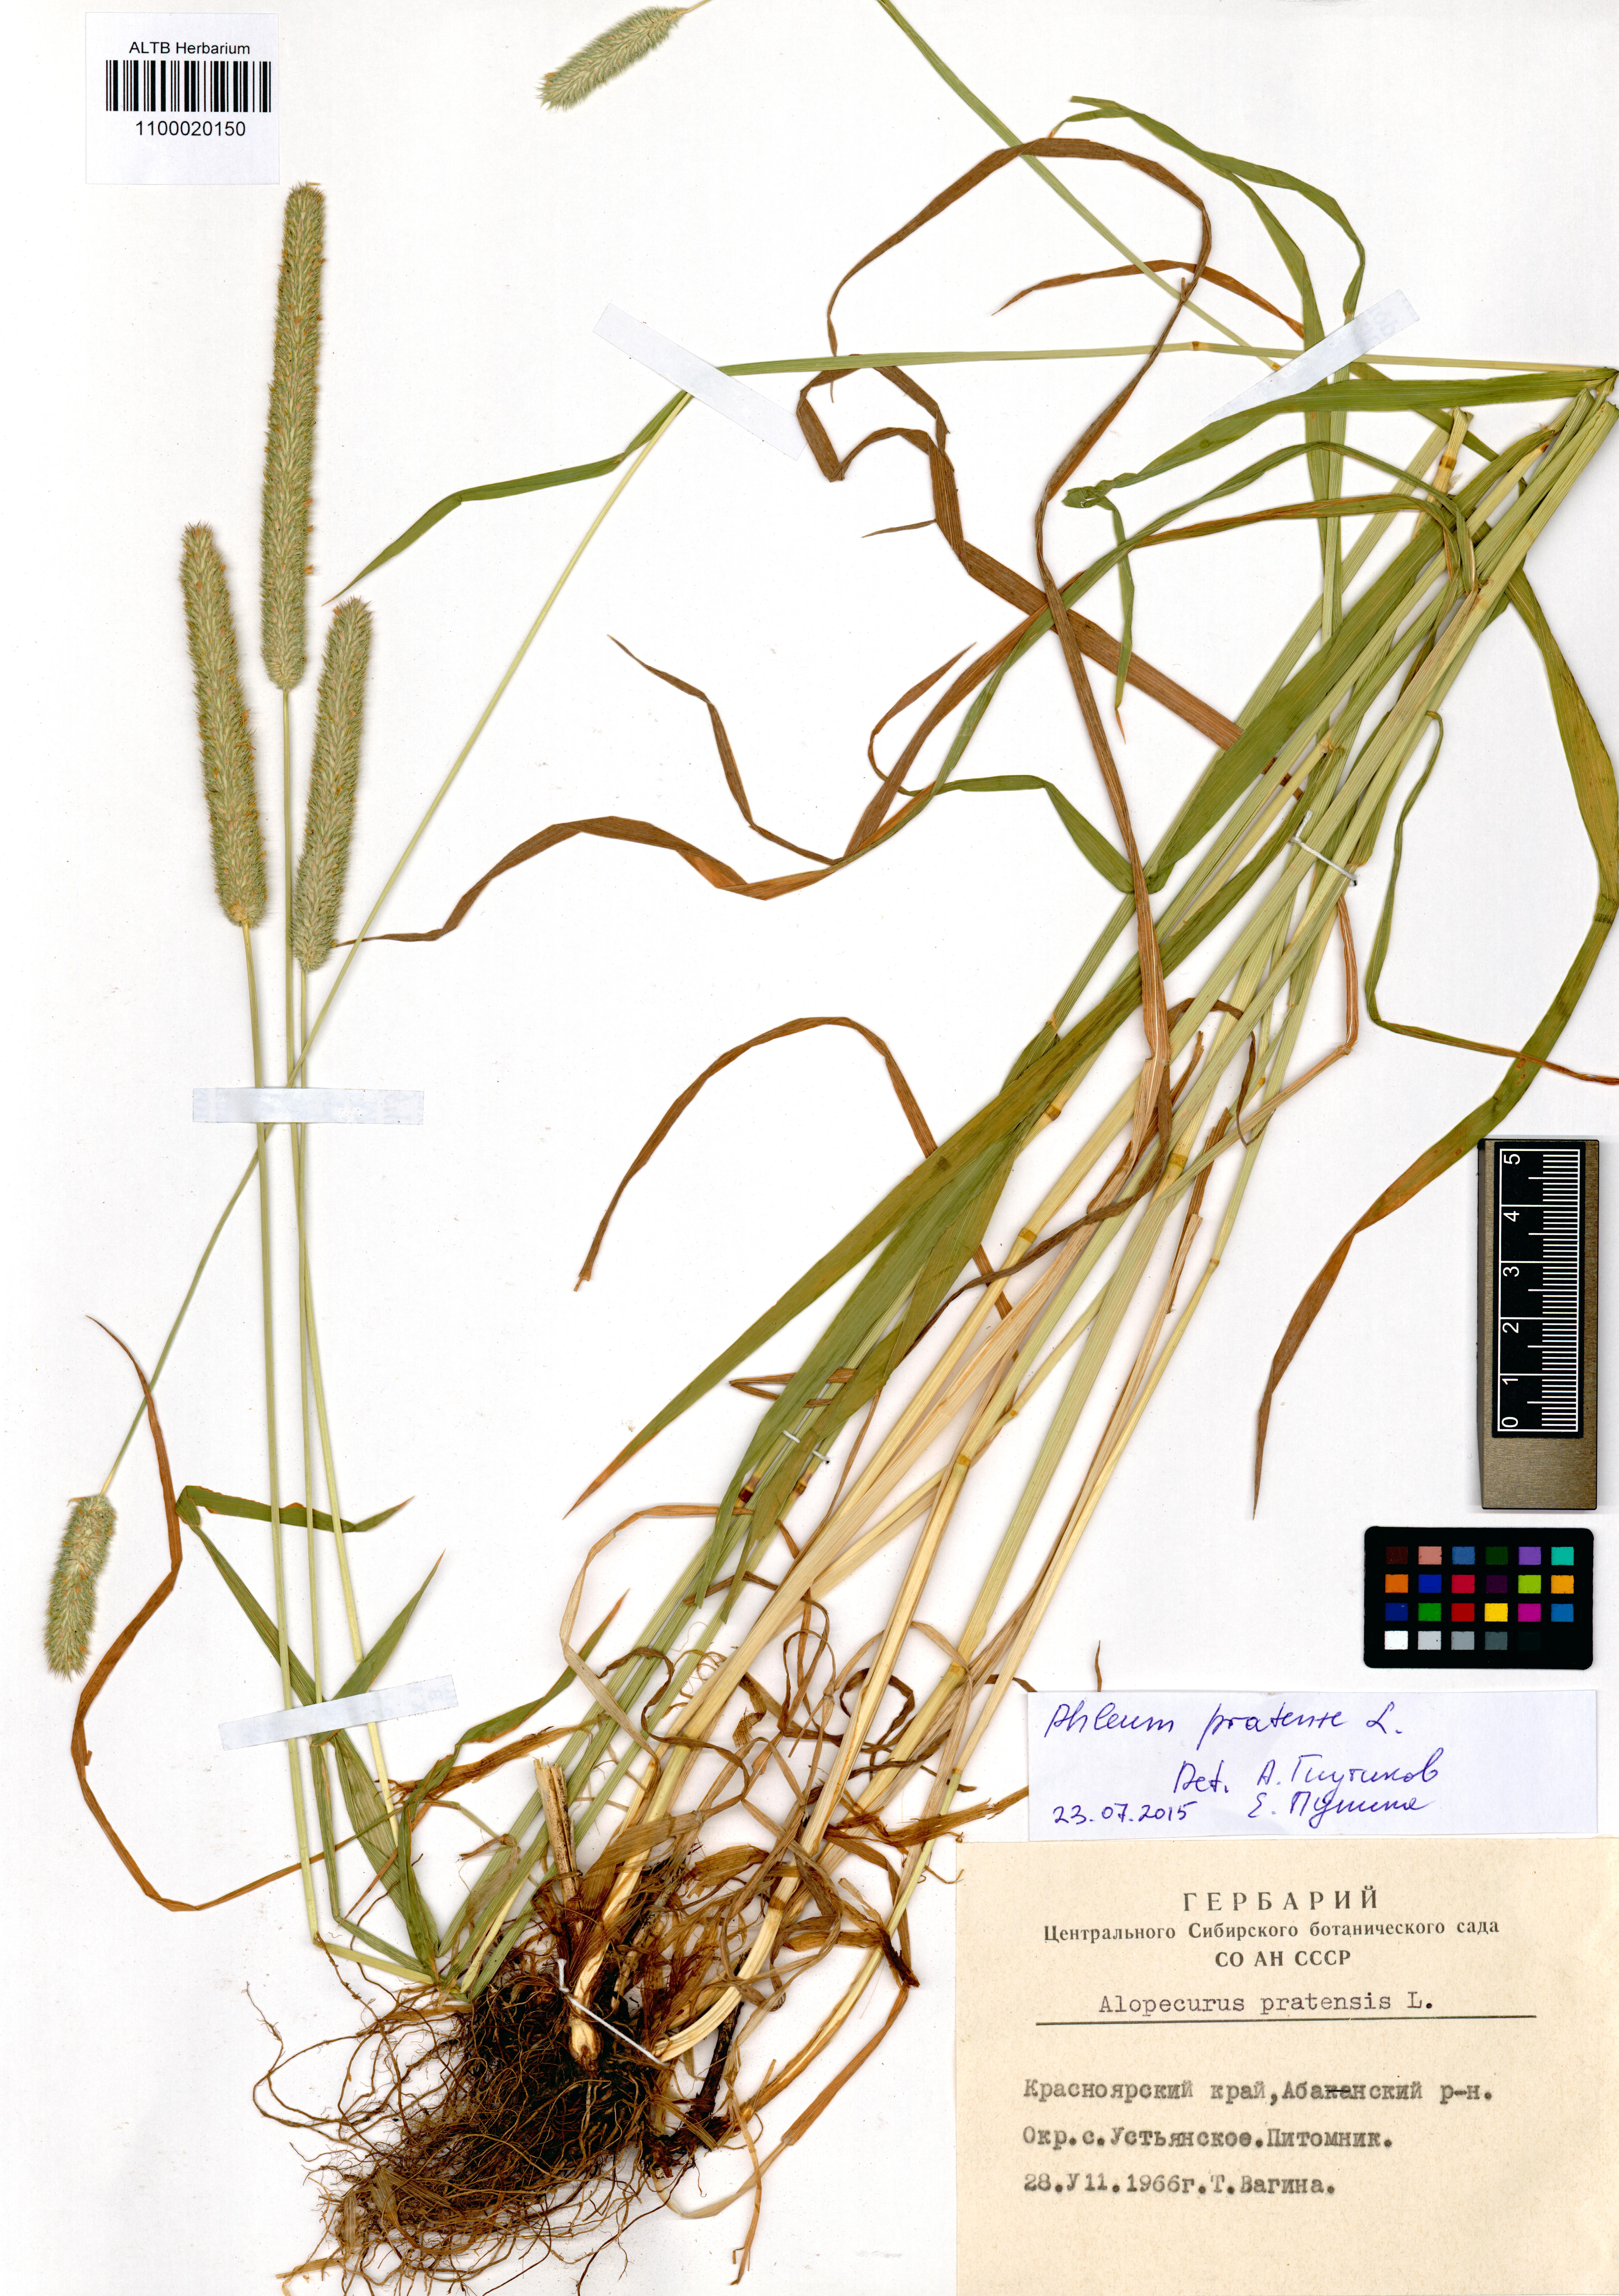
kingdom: Plantae
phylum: Tracheophyta
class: Liliopsida
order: Poales
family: Poaceae
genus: Alopecurus
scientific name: Alopecurus pratensis
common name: Meadow foxtail
